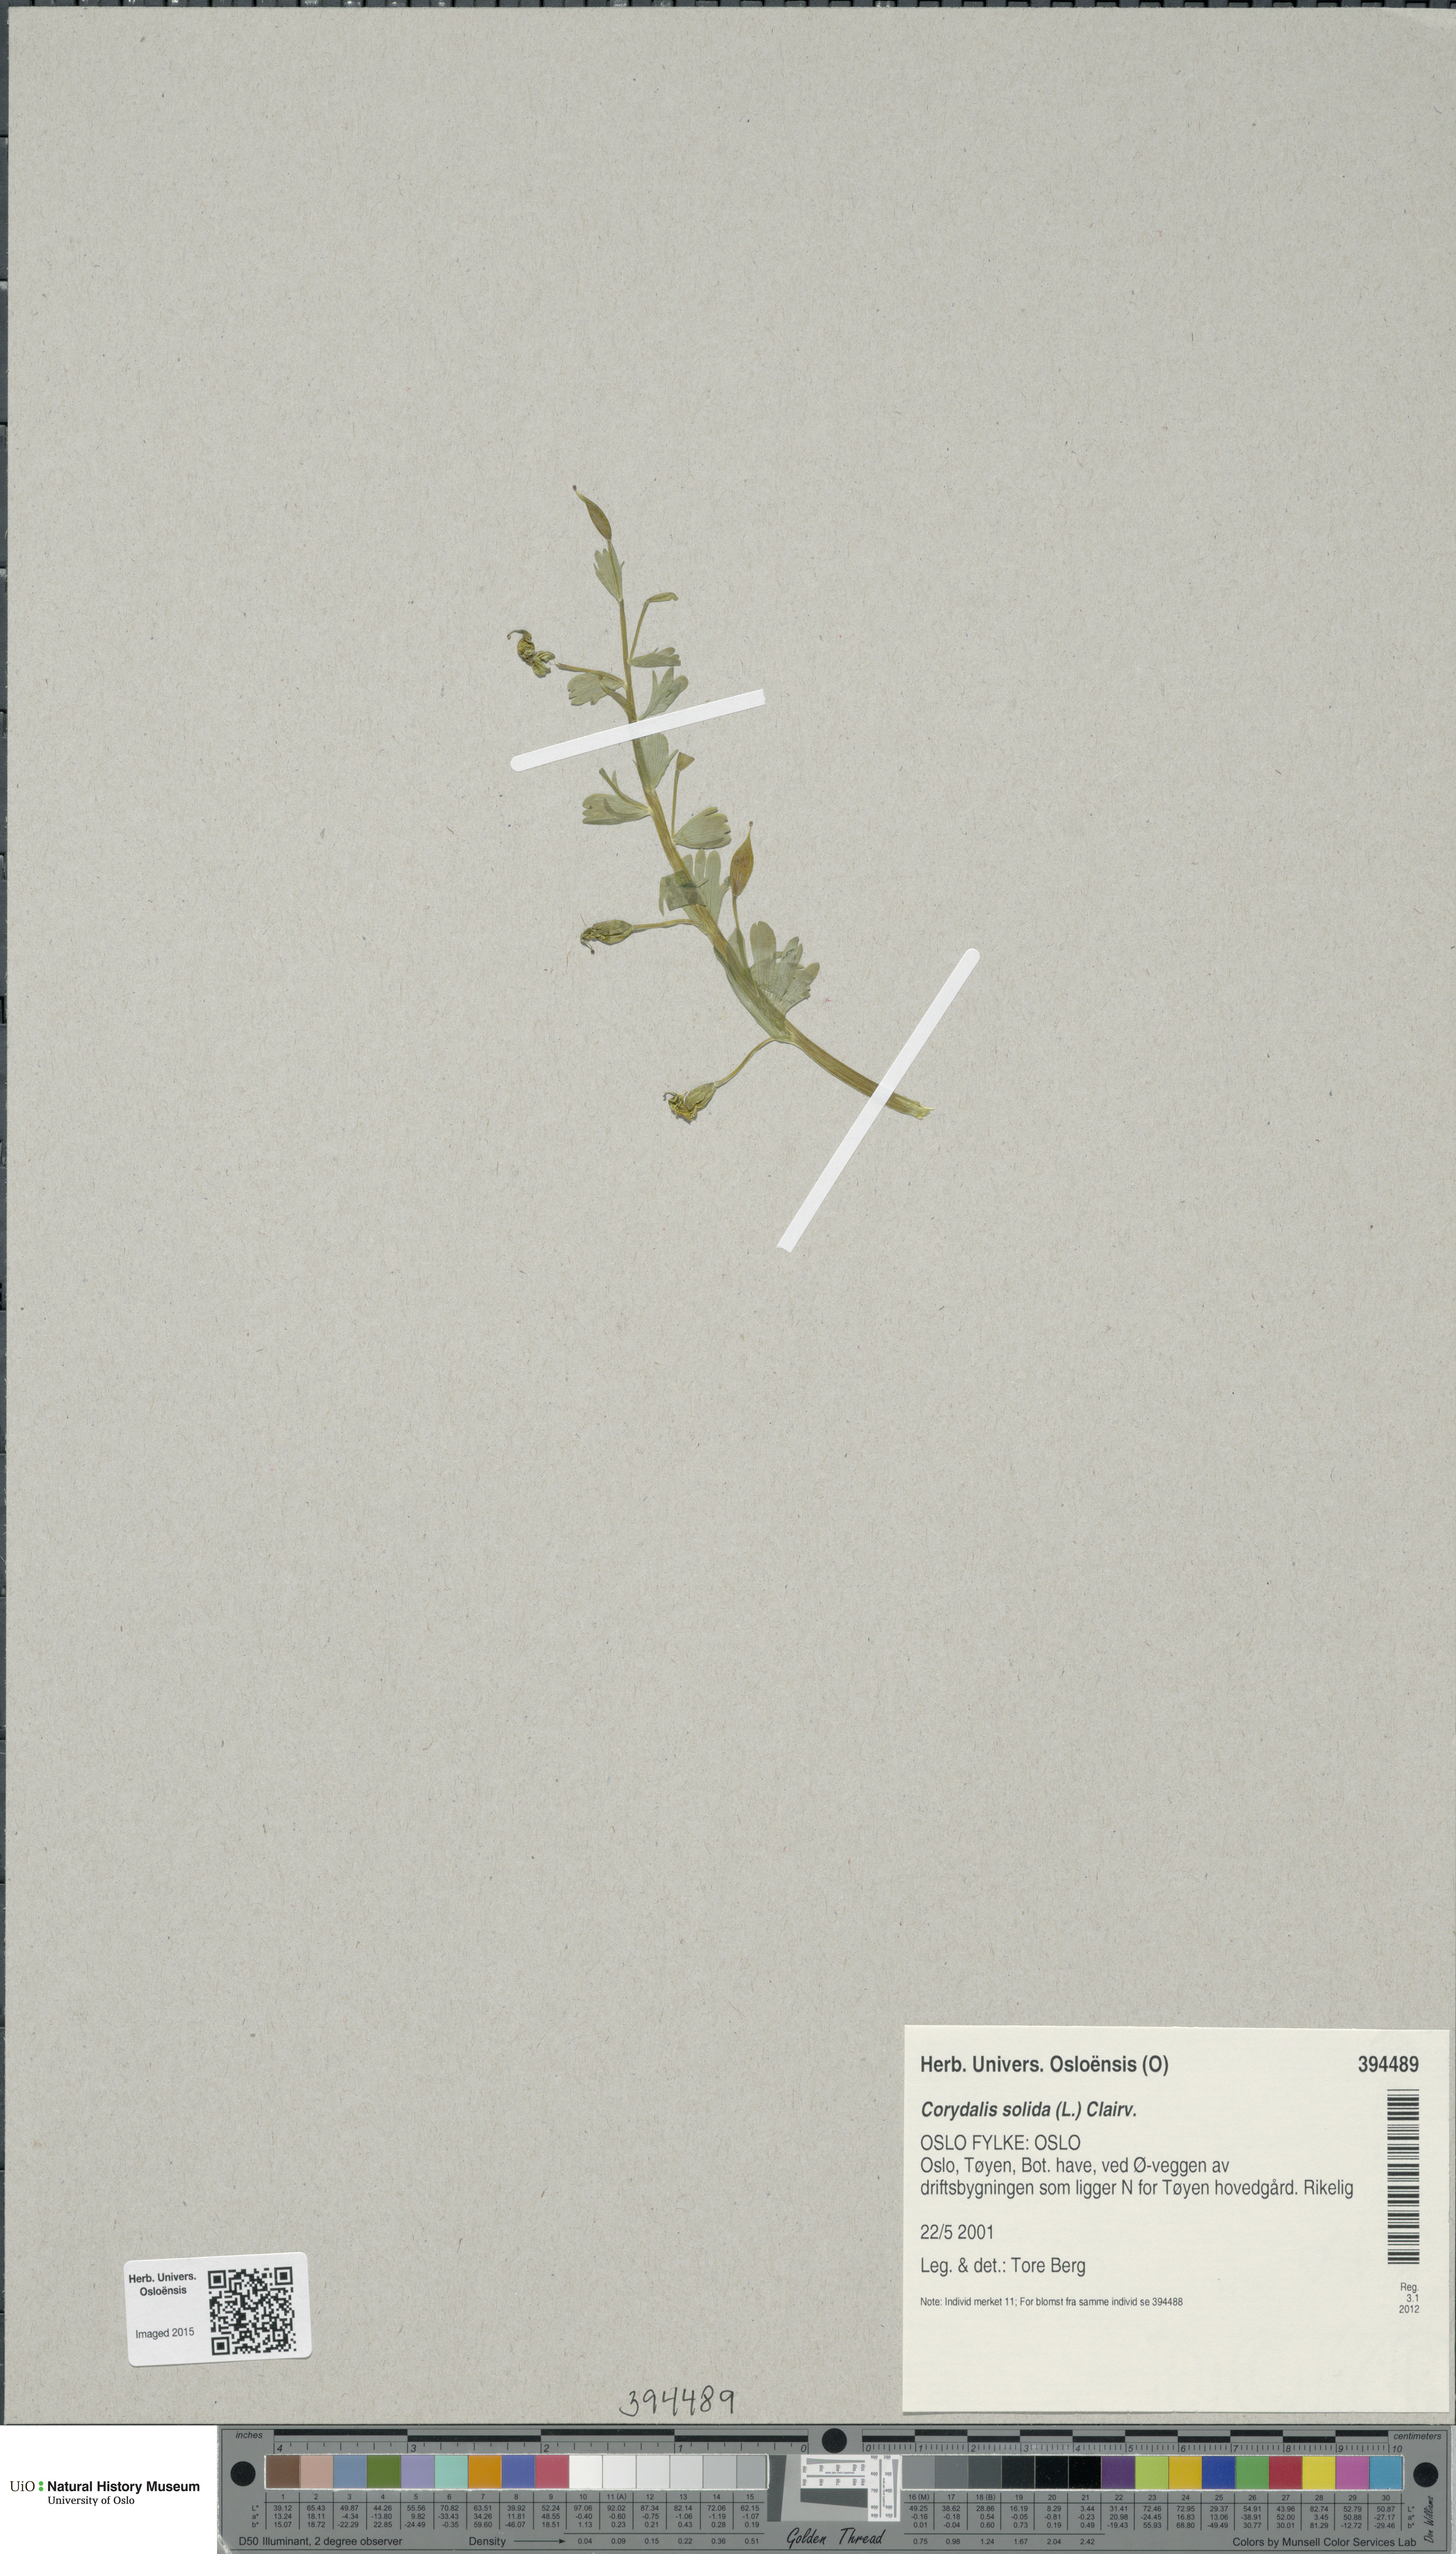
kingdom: Plantae
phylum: Tracheophyta
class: Magnoliopsida
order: Ranunculales
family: Papaveraceae
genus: Corydalis
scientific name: Corydalis solida
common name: Bird-in-a-bush
